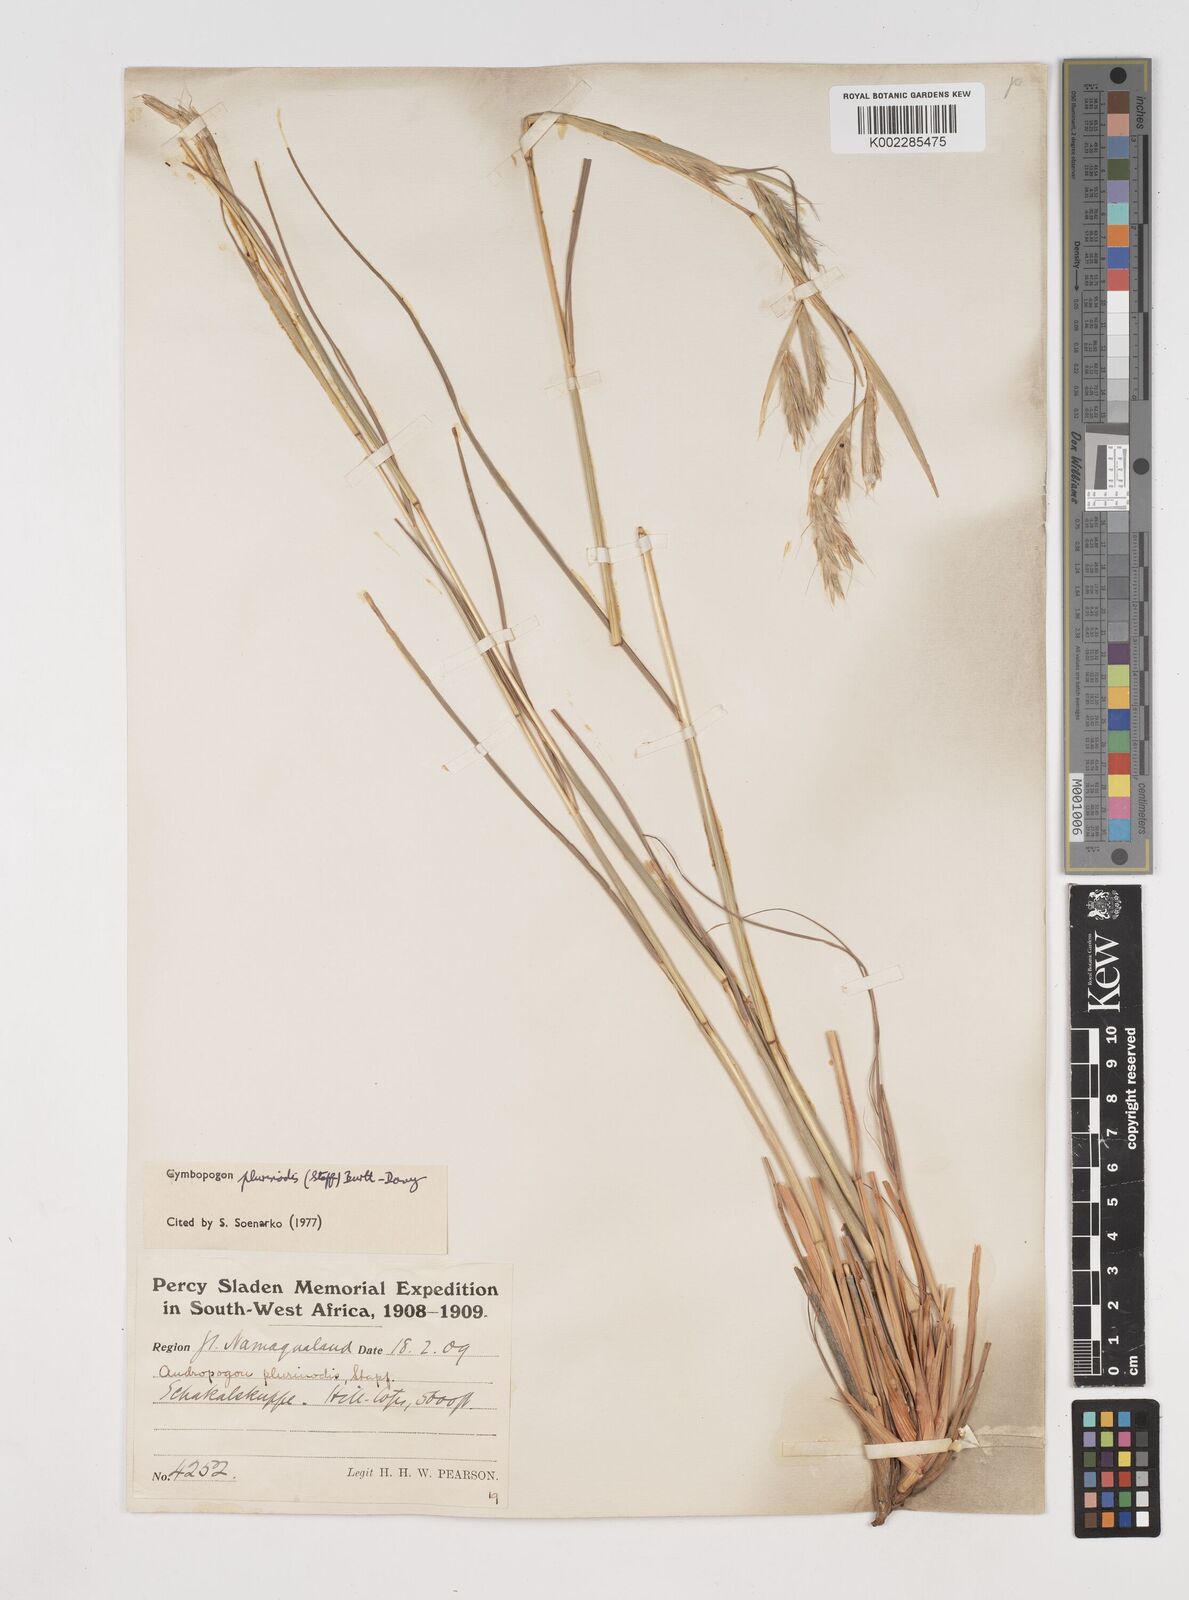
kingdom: Plantae
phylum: Tracheophyta
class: Liliopsida
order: Poales
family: Poaceae
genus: Cymbopogon
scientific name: Cymbopogon pospischilii
